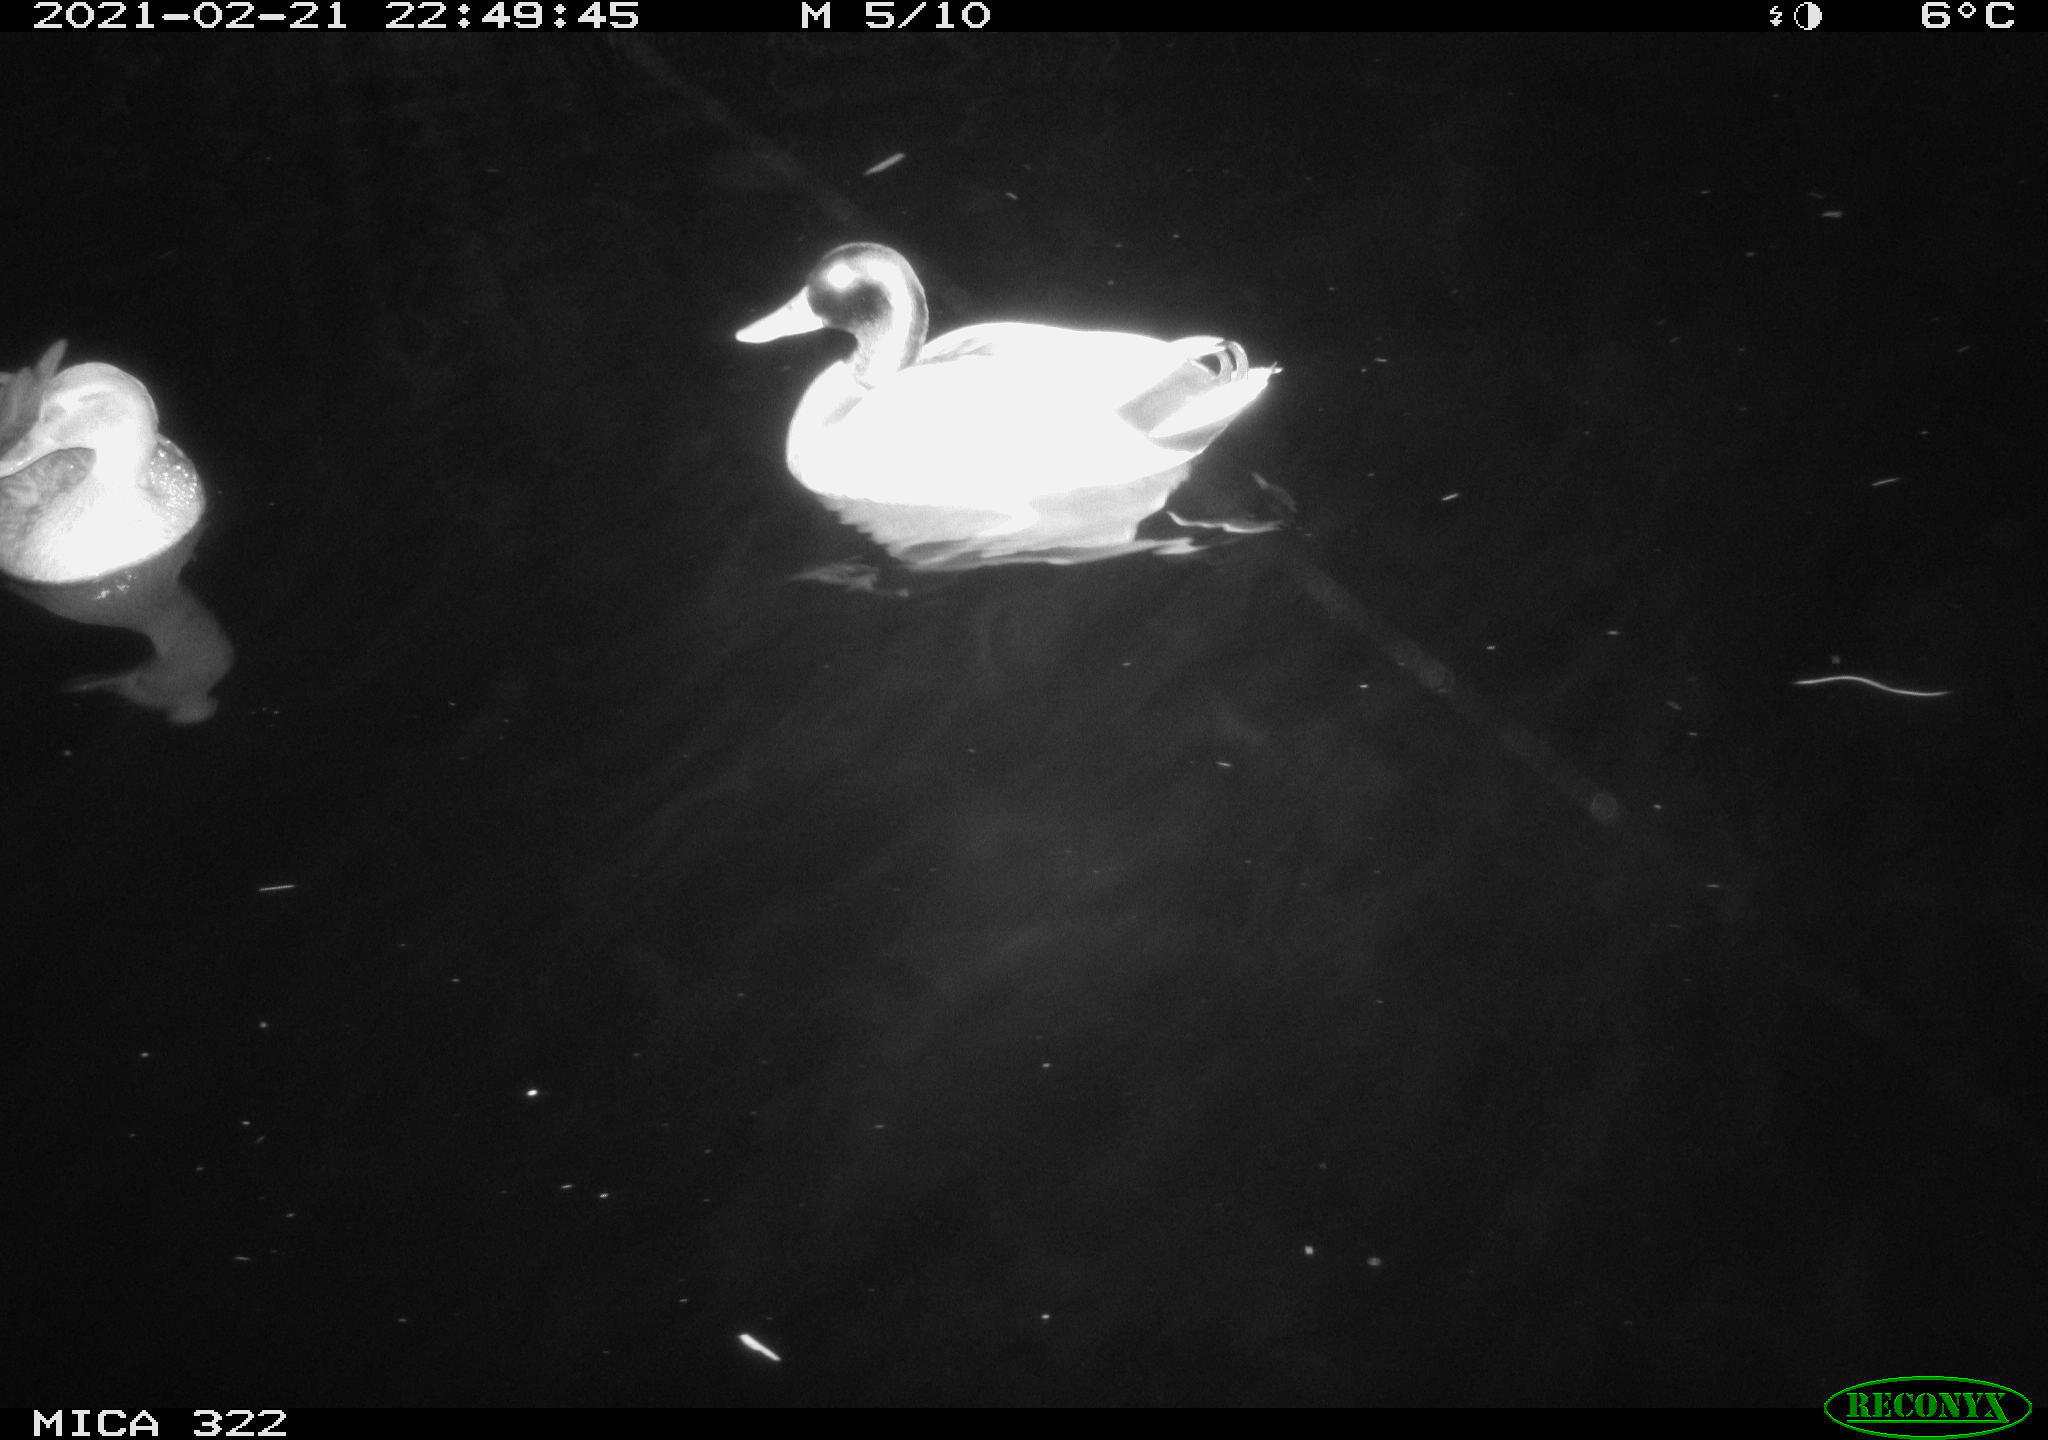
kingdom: Animalia
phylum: Chordata
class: Aves
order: Anseriformes
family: Anatidae
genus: Anas
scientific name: Anas platyrhynchos
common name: Mallard
